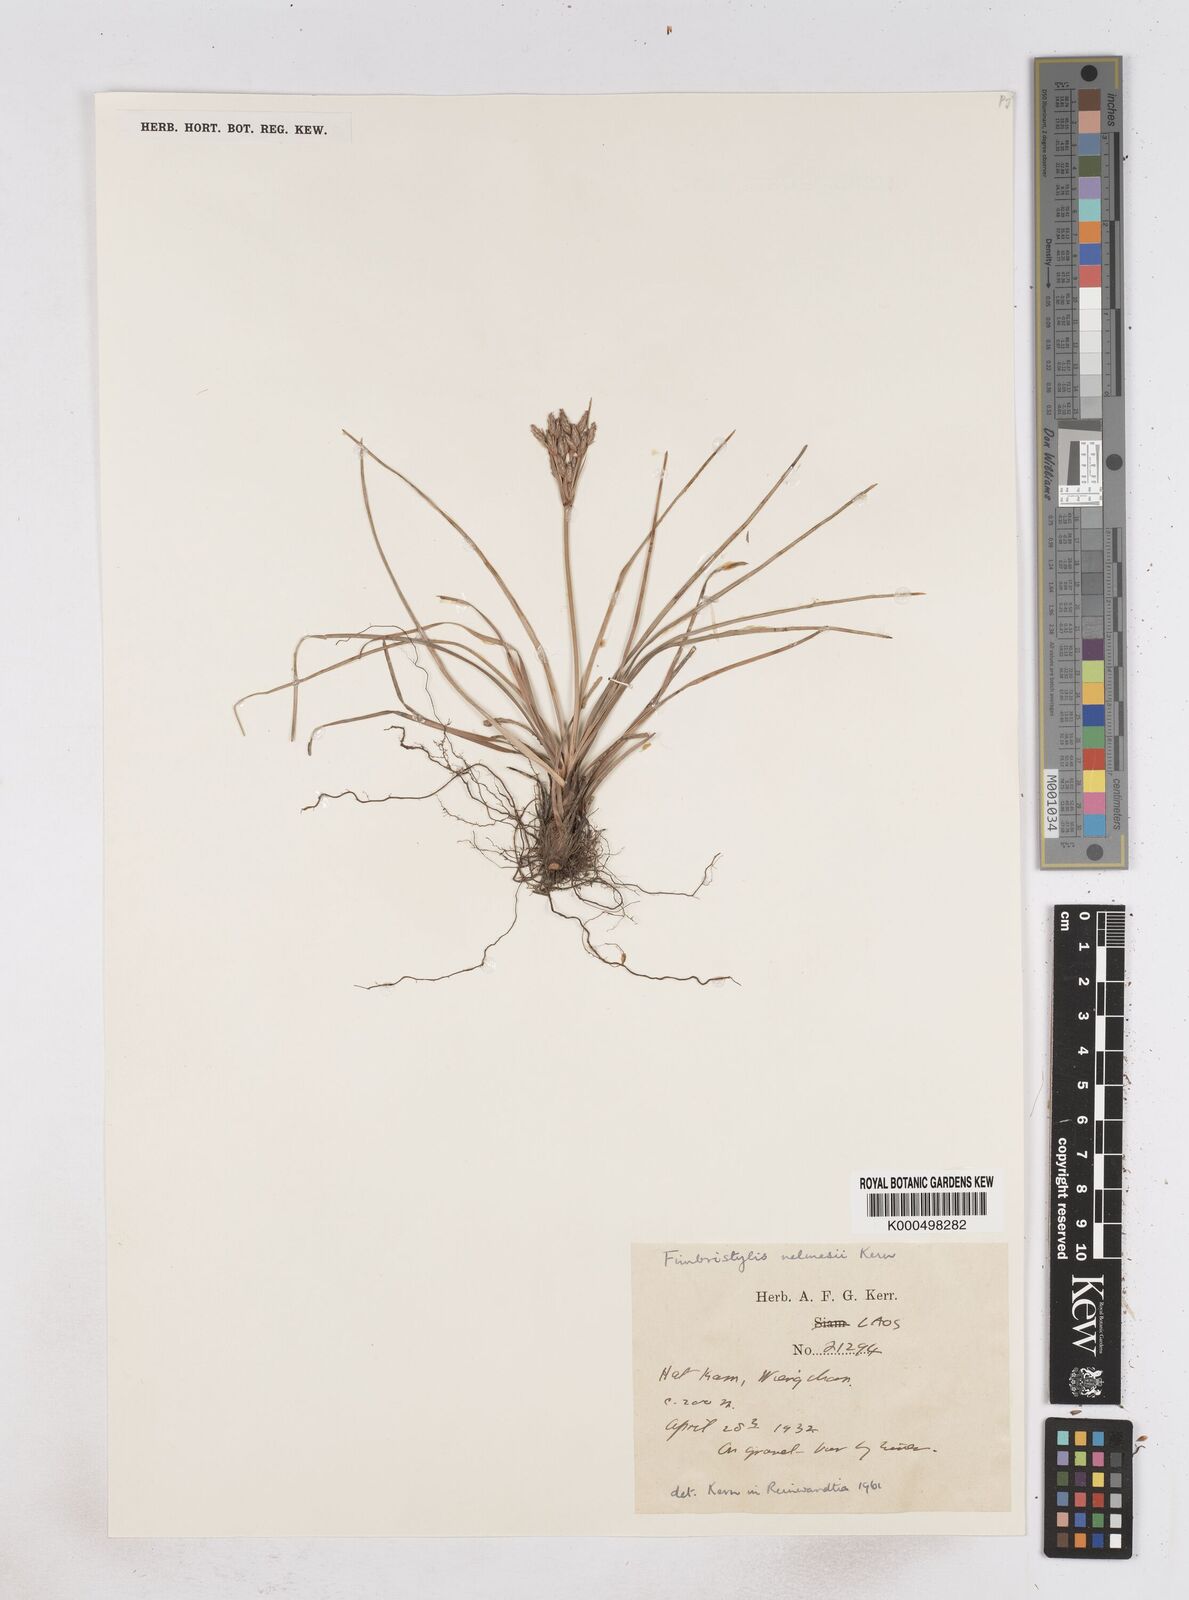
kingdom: Plantae
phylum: Tracheophyta
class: Liliopsida
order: Poales
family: Cyperaceae
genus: Fimbristylis
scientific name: Fimbristylis nelmesii
